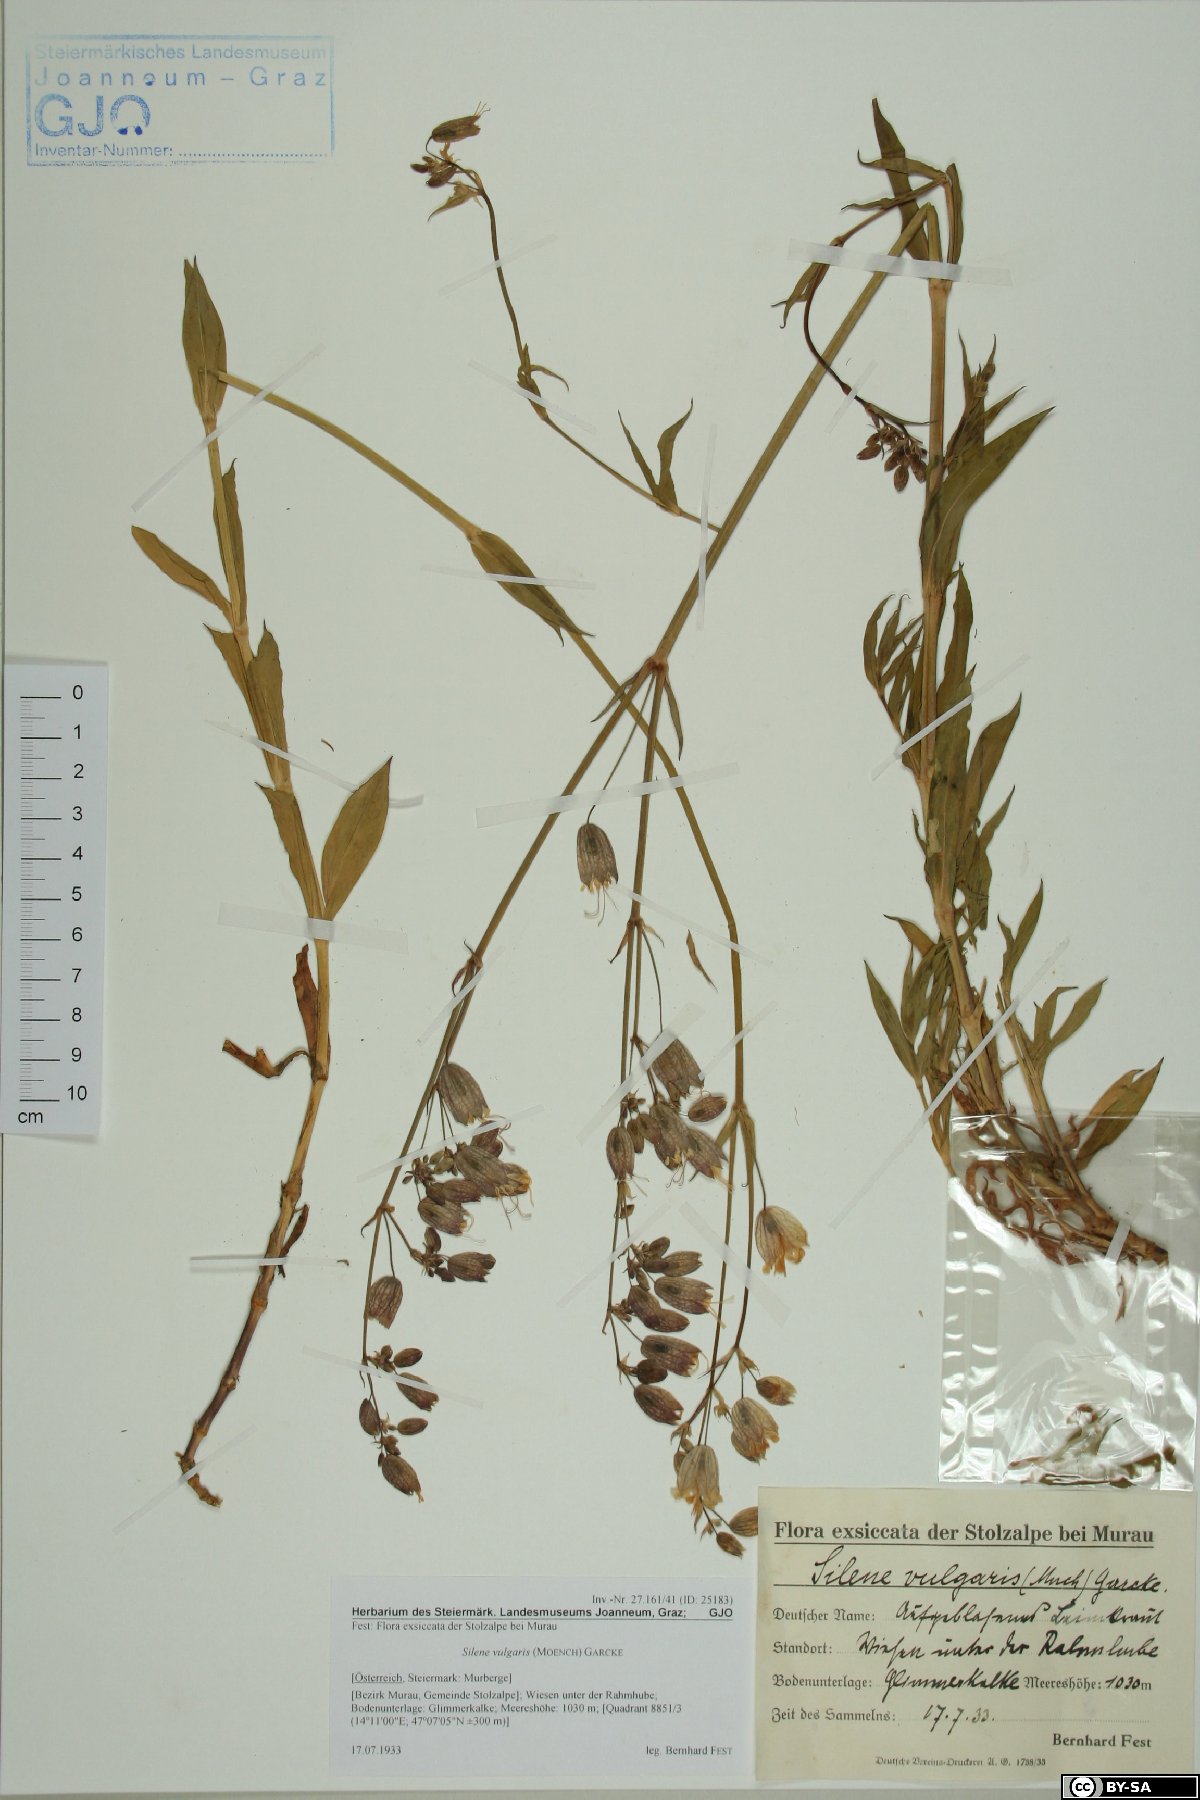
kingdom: Plantae
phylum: Tracheophyta
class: Magnoliopsida
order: Caryophyllales
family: Caryophyllaceae
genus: Silene
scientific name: Silene vulgaris
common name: Bladder campion
